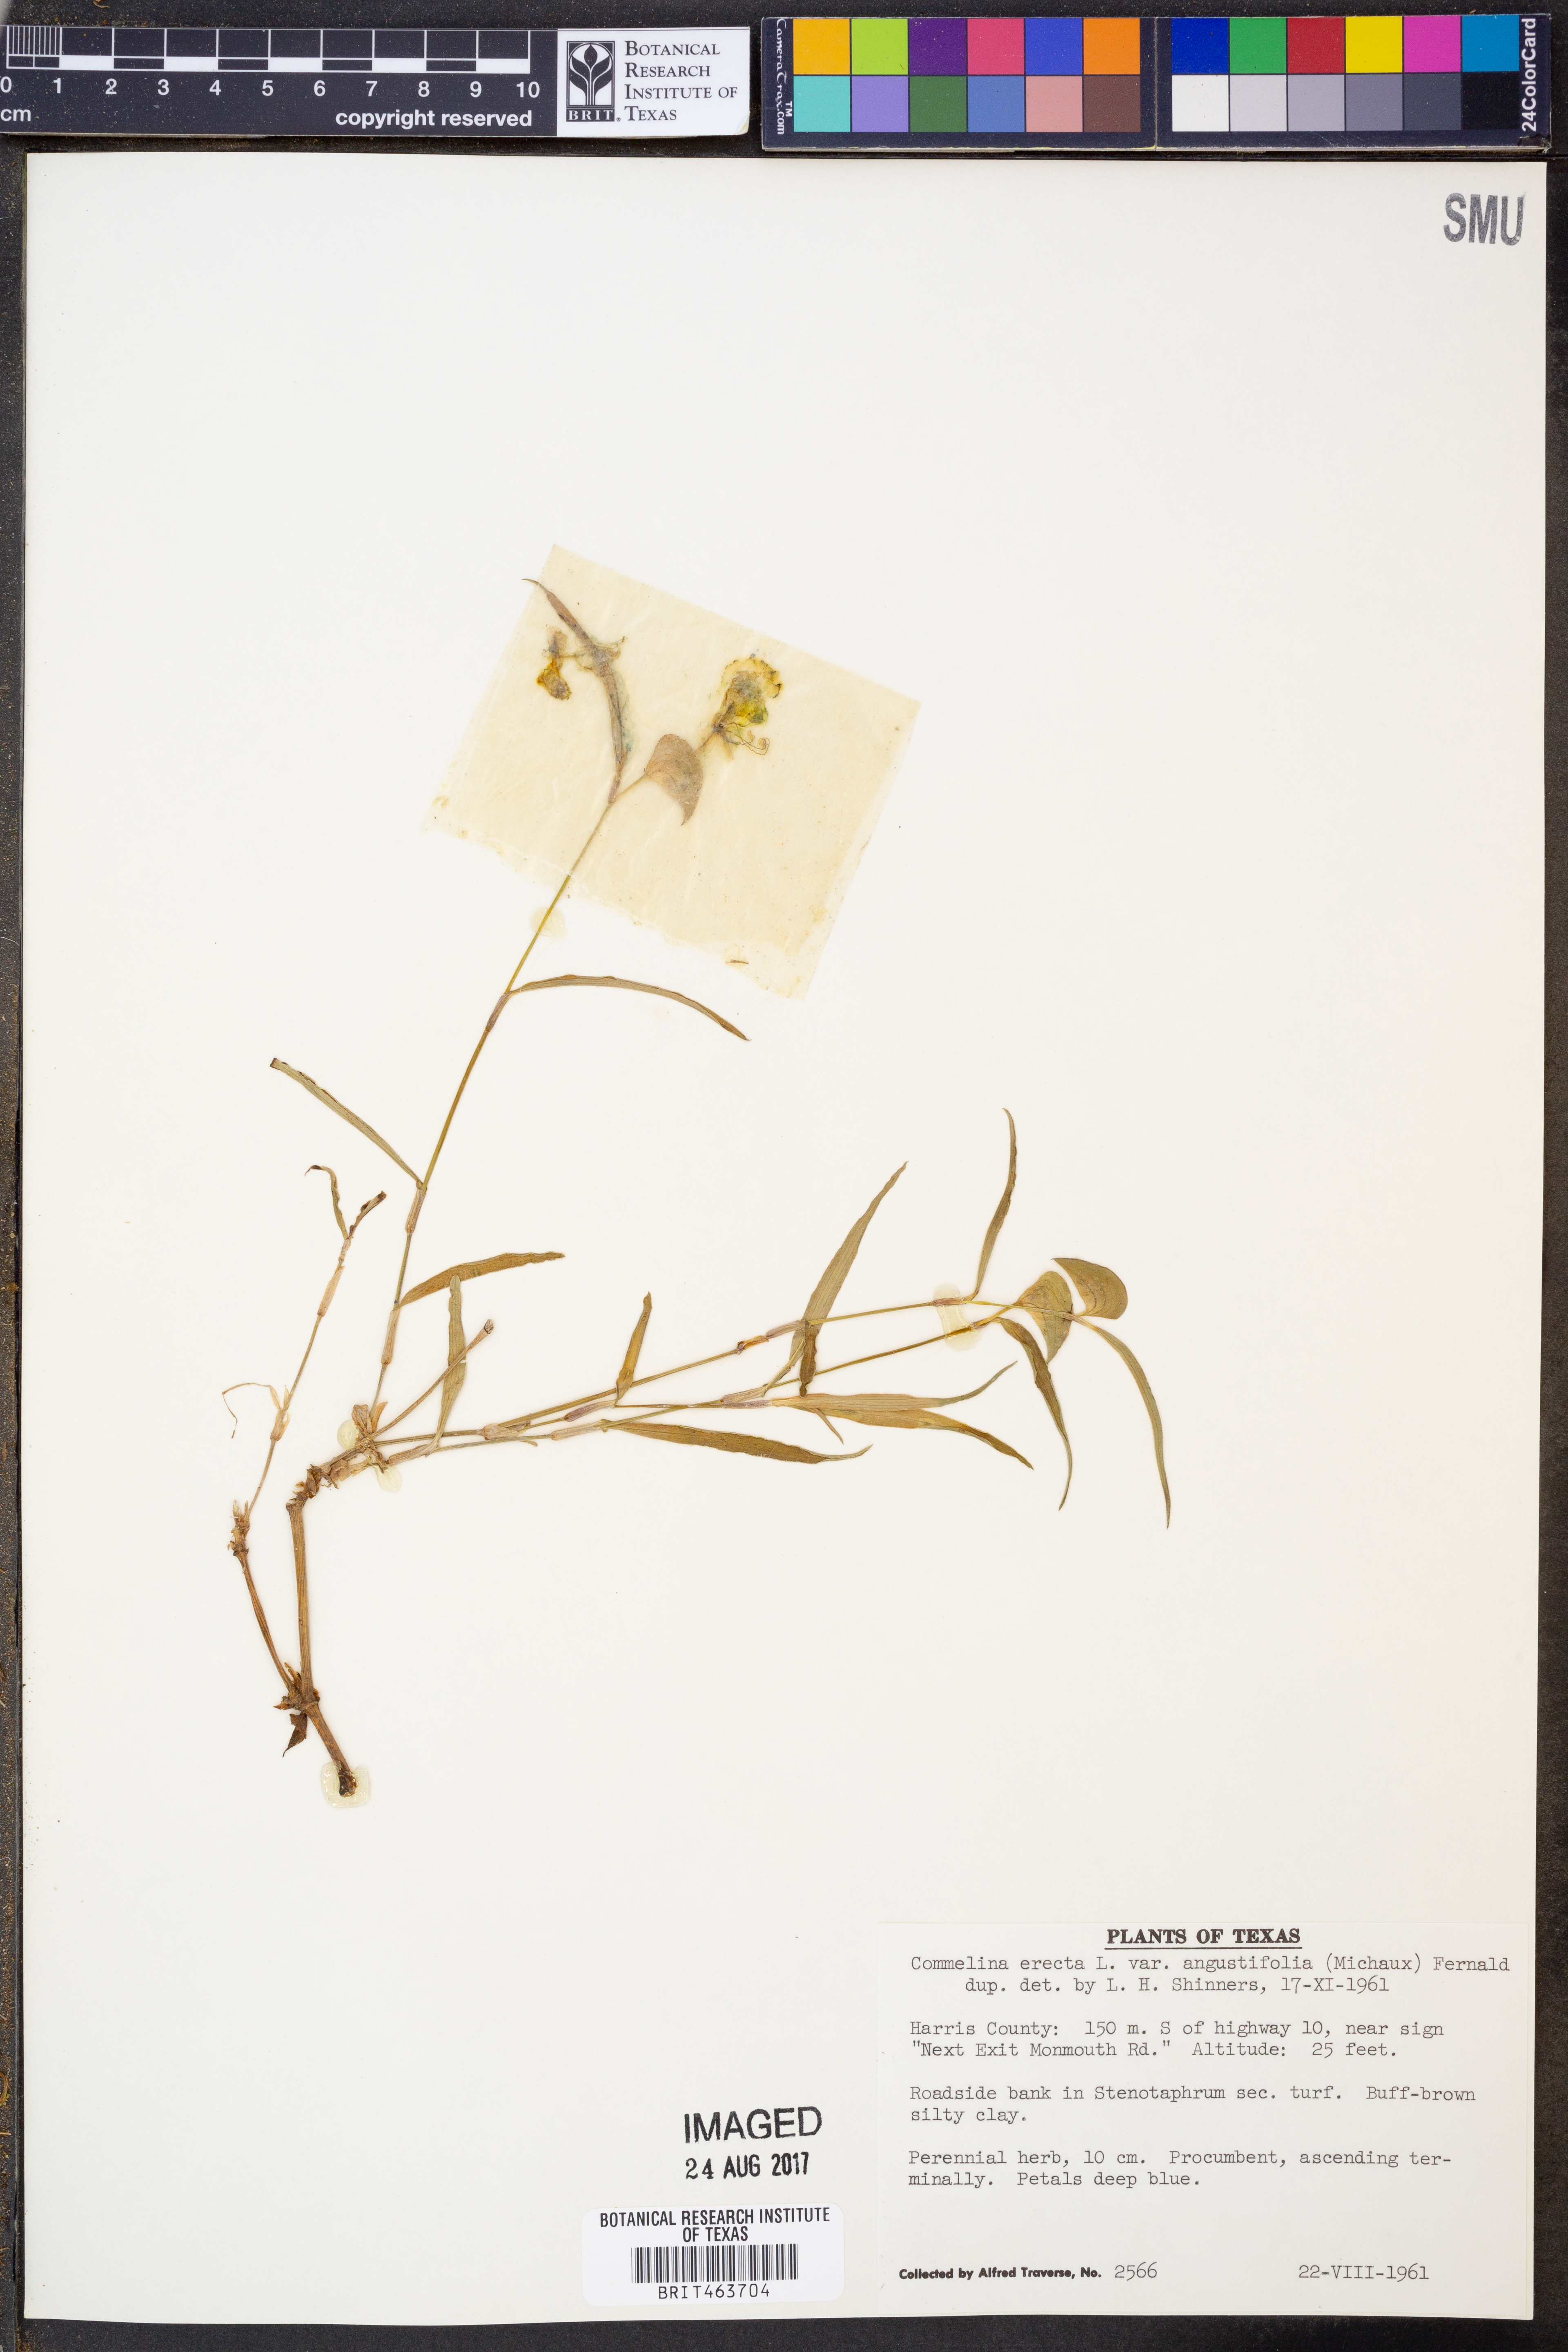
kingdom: Plantae
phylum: Tracheophyta
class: Liliopsida
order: Commelinales
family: Commelinaceae
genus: Commelina
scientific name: Commelina erecta
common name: Blousel blommetjie
